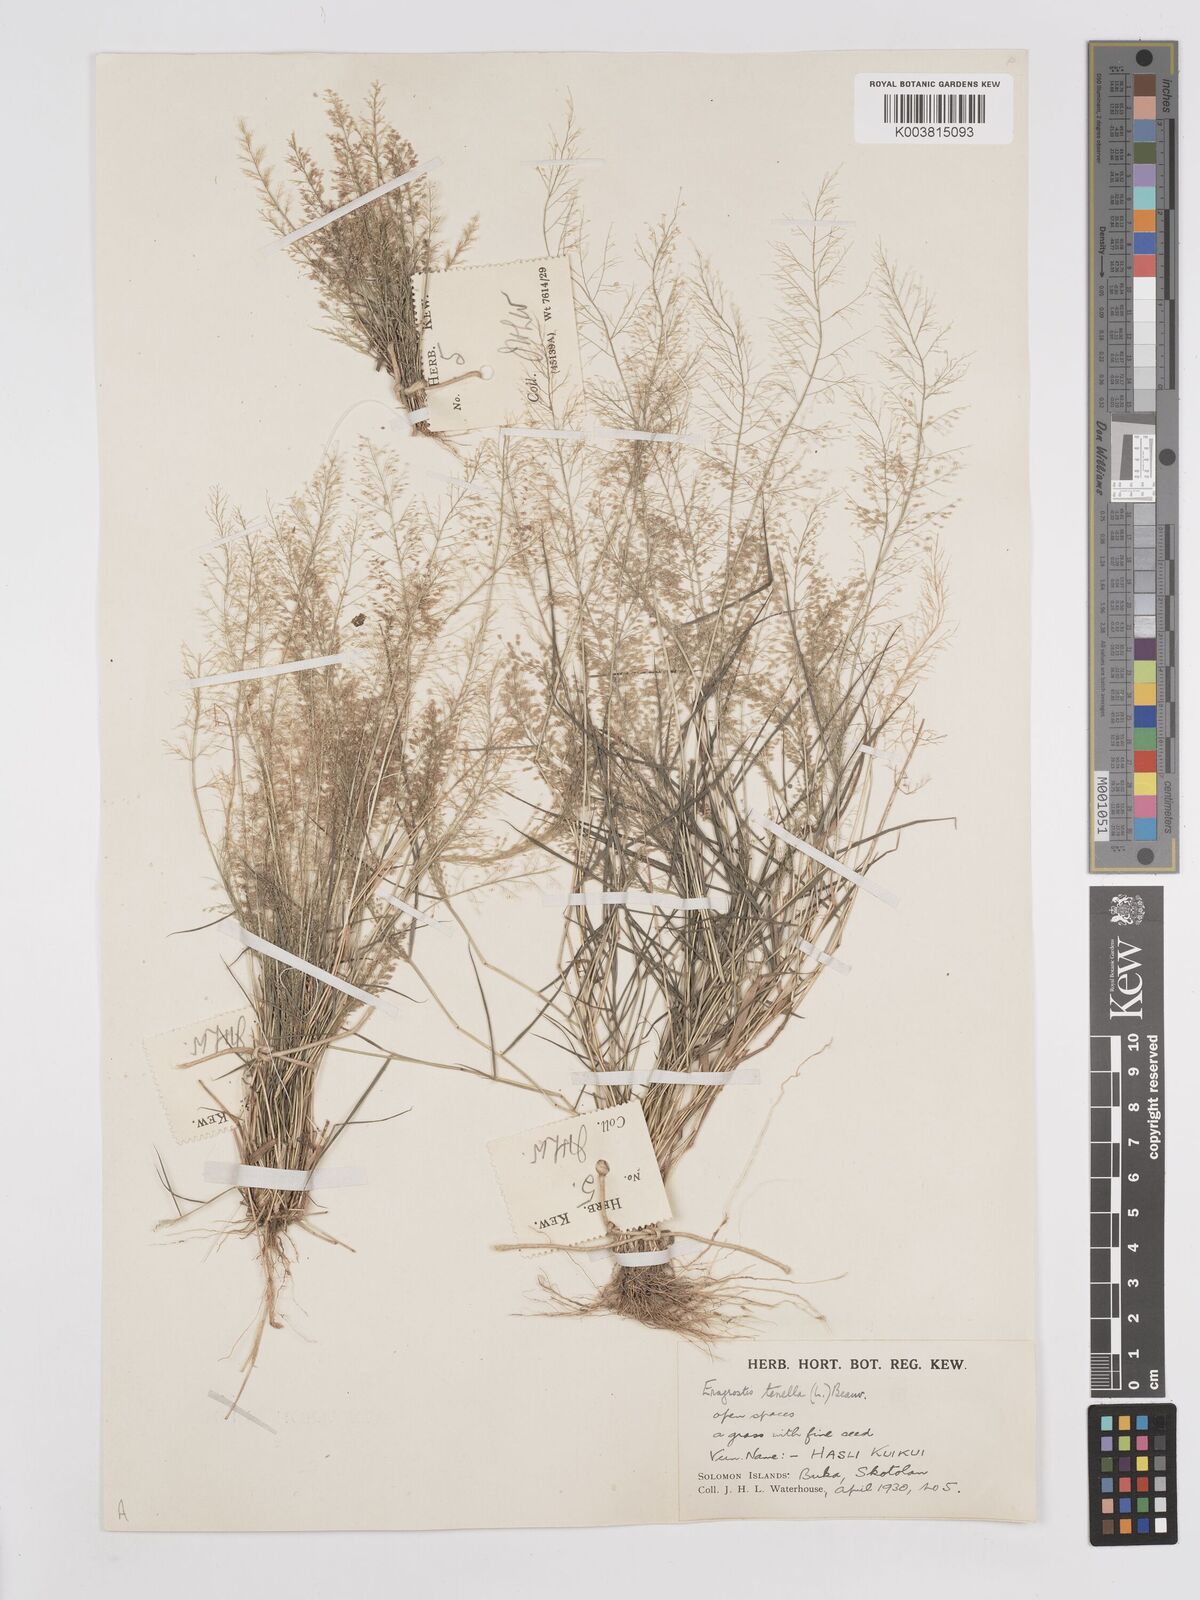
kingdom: Plantae
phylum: Tracheophyta
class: Liliopsida
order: Poales
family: Poaceae
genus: Eragrostis
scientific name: Eragrostis tenella
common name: Japanese lovegrass
